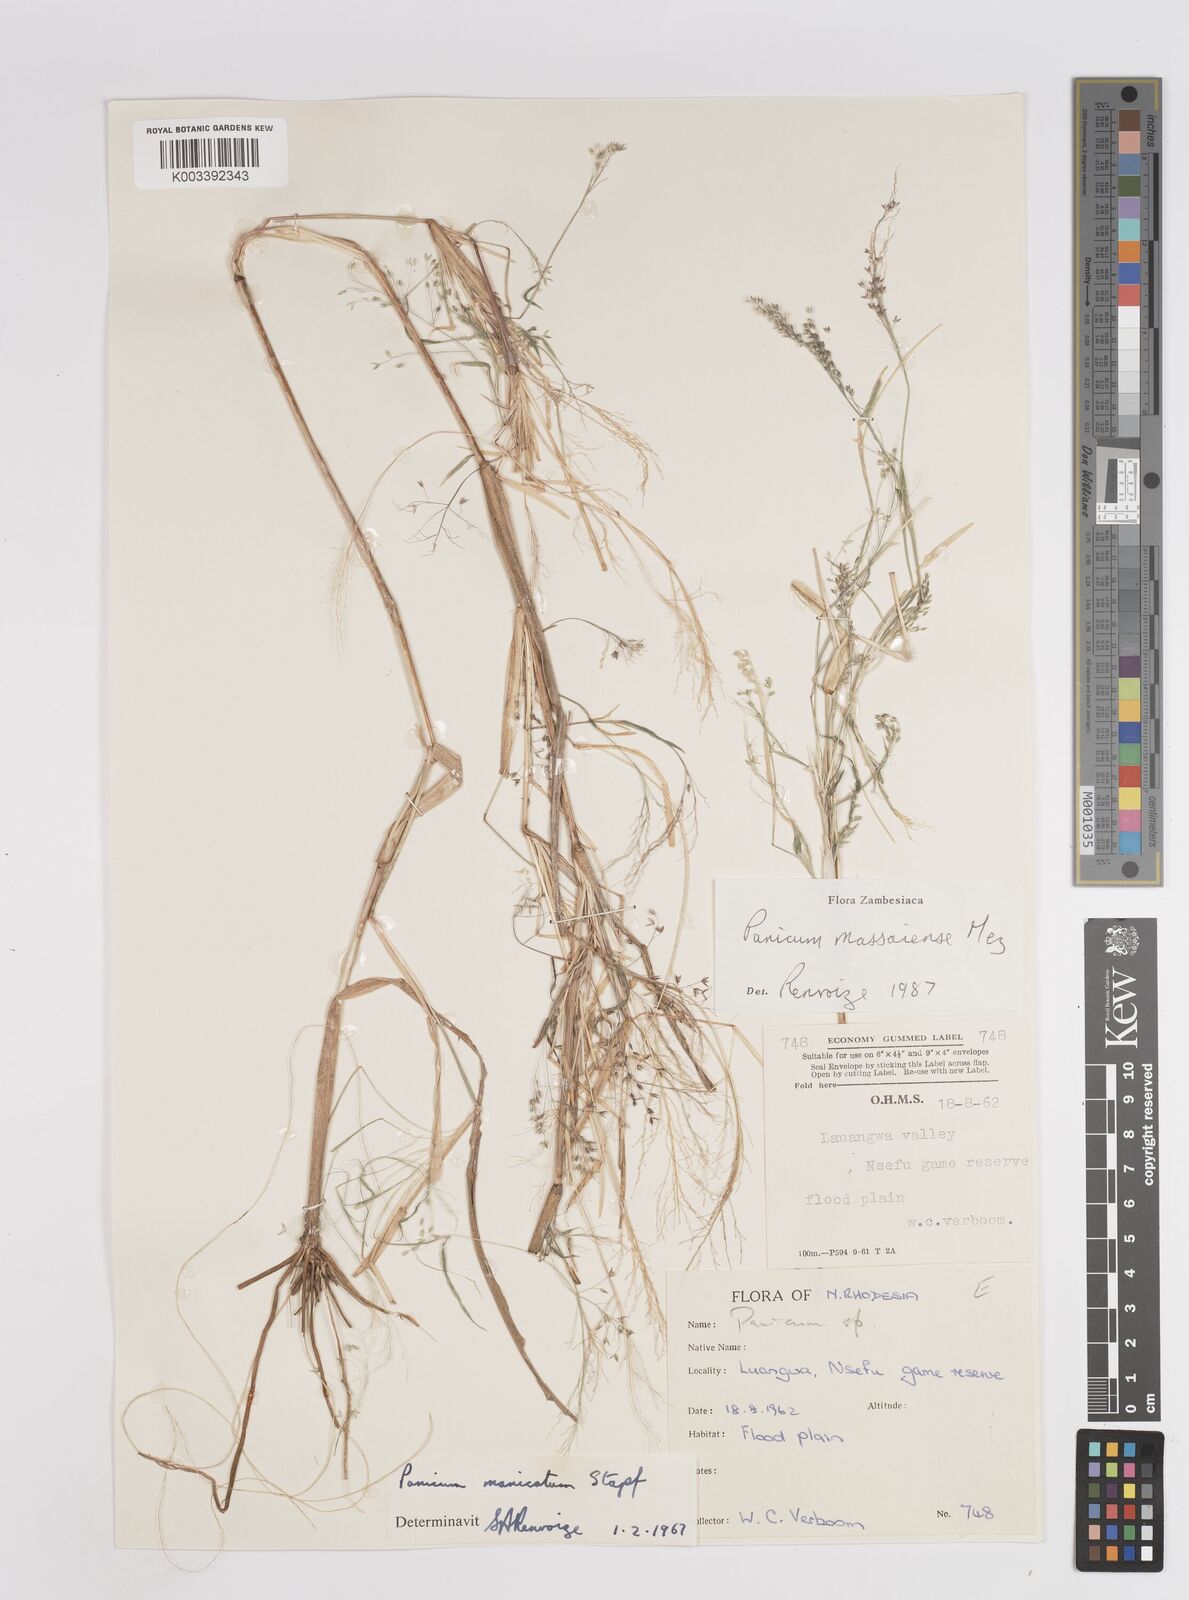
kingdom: Plantae
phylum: Tracheophyta
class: Liliopsida
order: Poales
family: Poaceae
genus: Panicum
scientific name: Panicum massaiense
